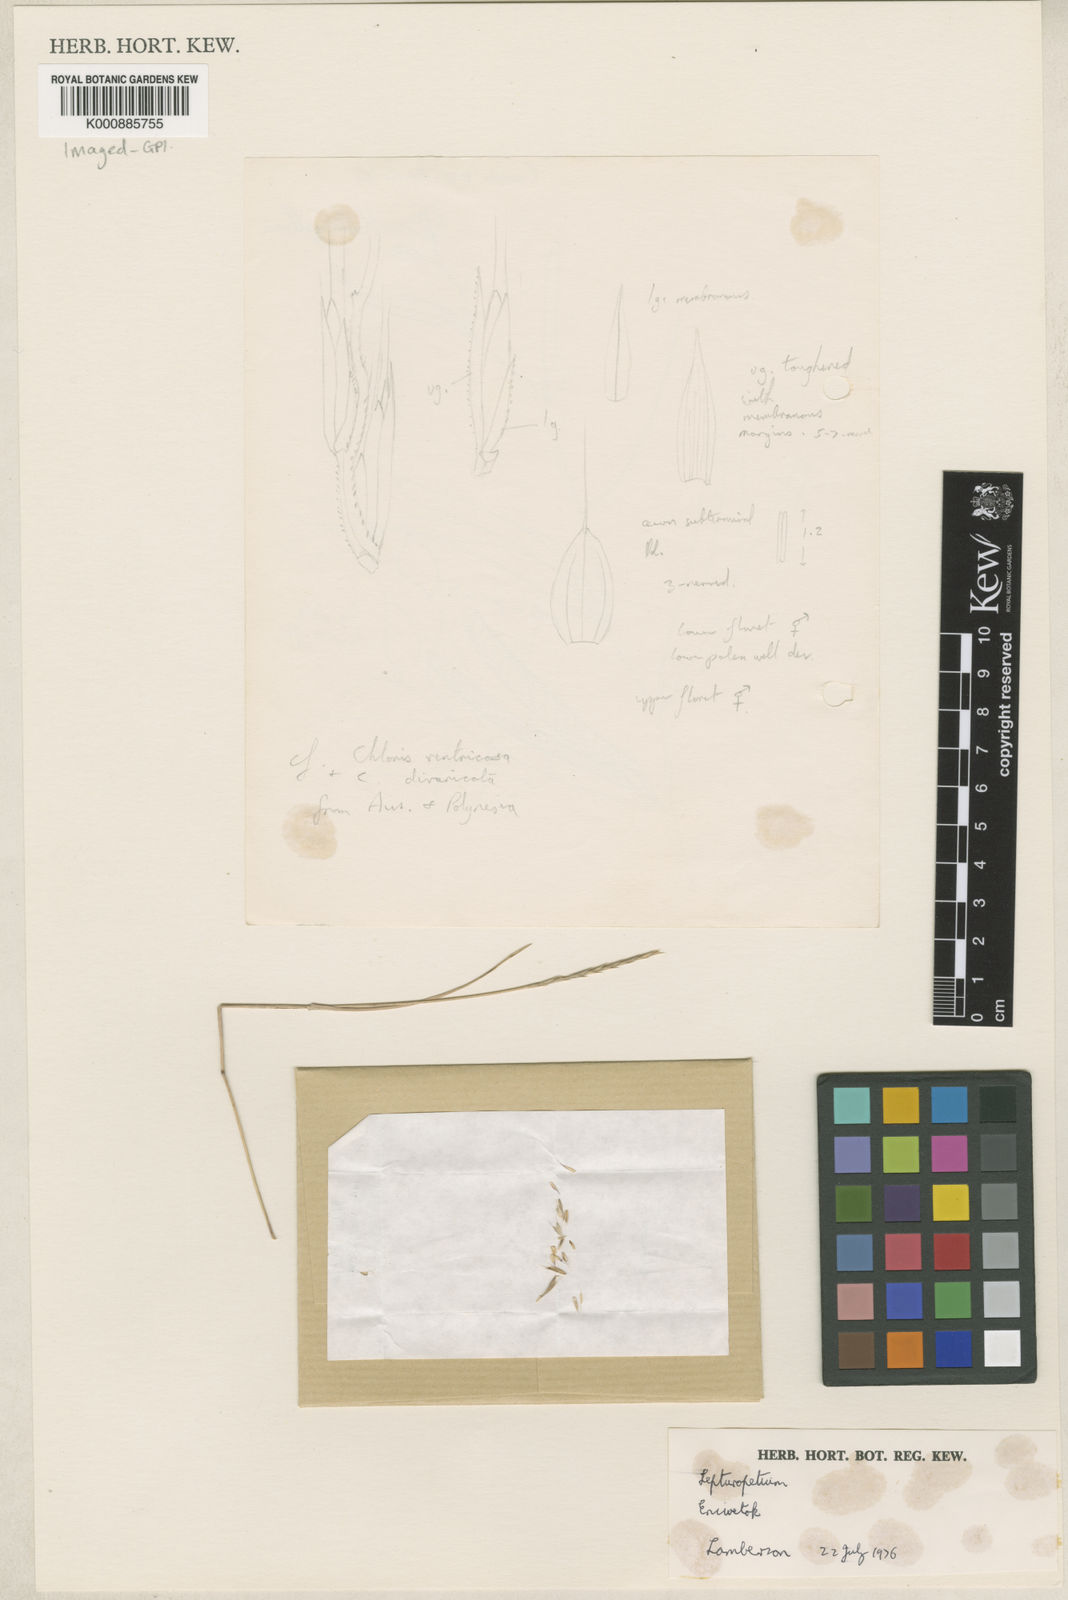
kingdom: Plantae
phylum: Tracheophyta
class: Liliopsida
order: Poales
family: Poaceae
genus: Lepturopetium
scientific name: Lepturopetium marshallense
